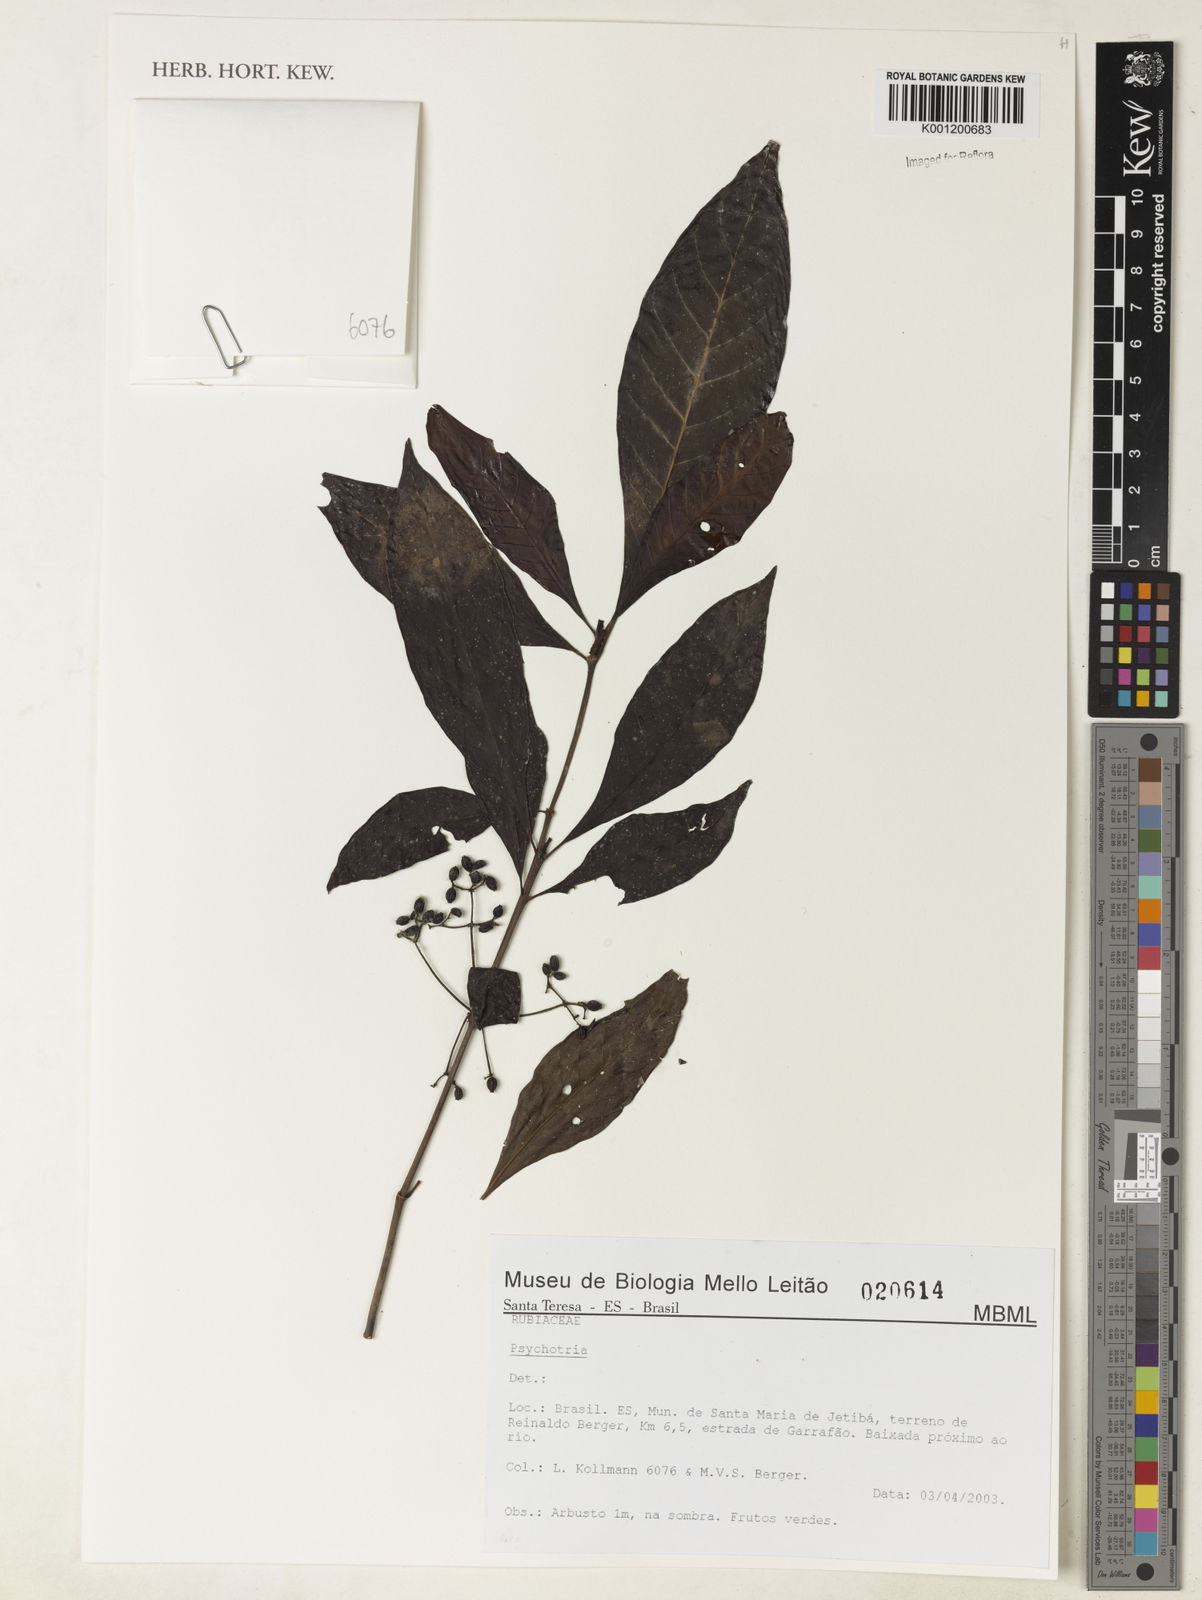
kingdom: Plantae
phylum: Tracheophyta
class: Magnoliopsida
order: Gentianales
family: Rubiaceae
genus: Psychotria
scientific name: Psychotria
